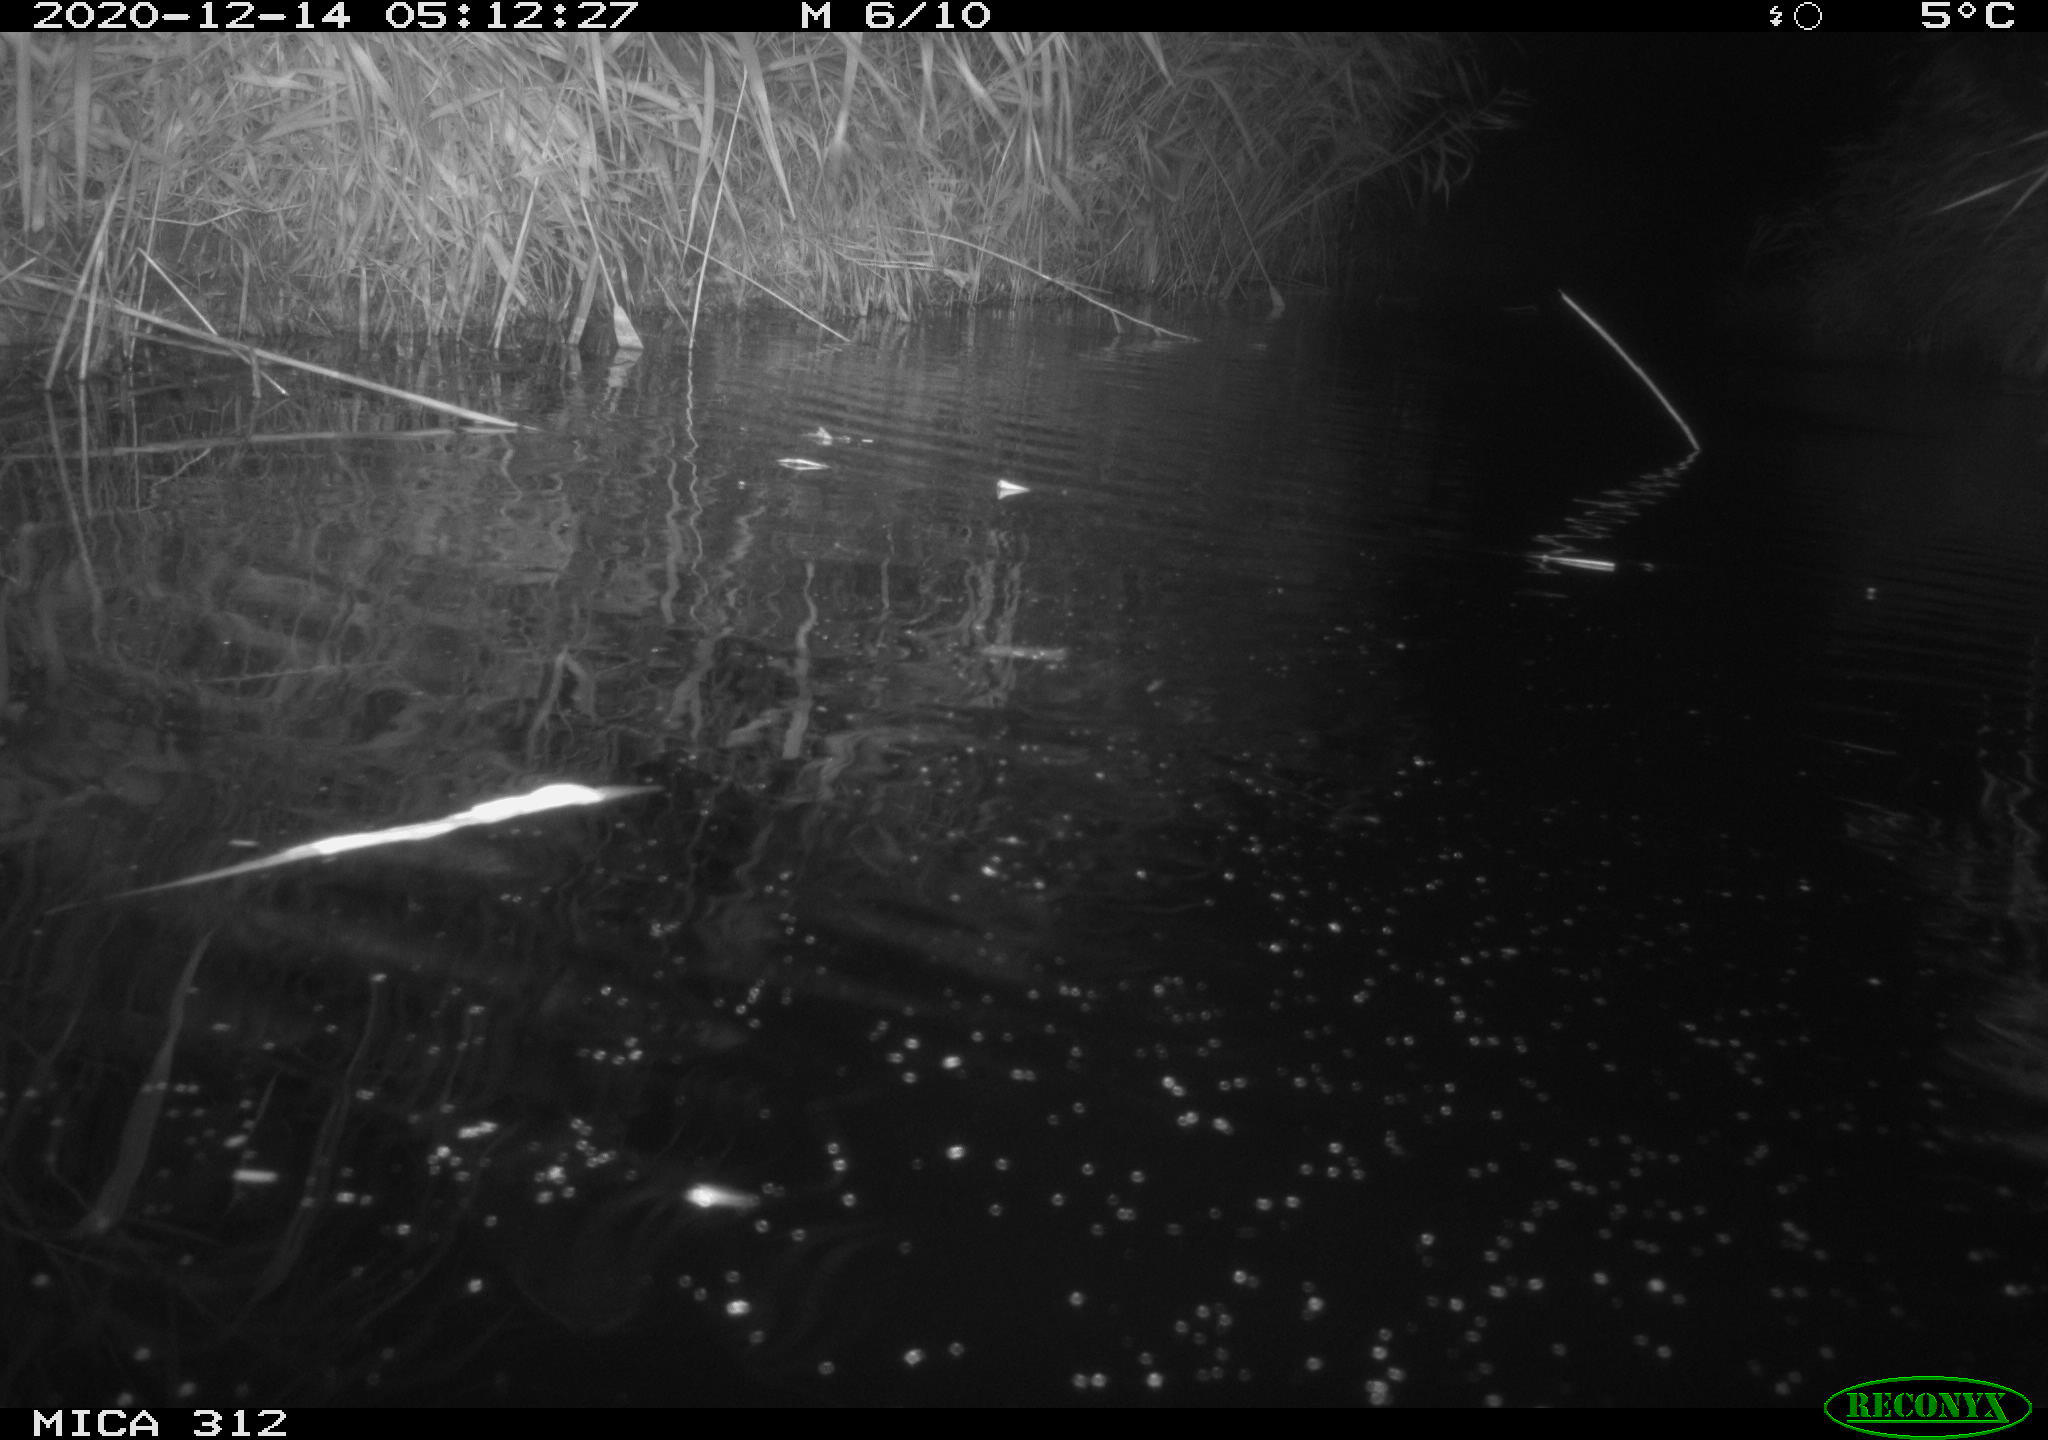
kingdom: Animalia
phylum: Chordata
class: Mammalia
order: Rodentia
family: Muridae
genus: Rattus
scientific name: Rattus norvegicus
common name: Brown rat
